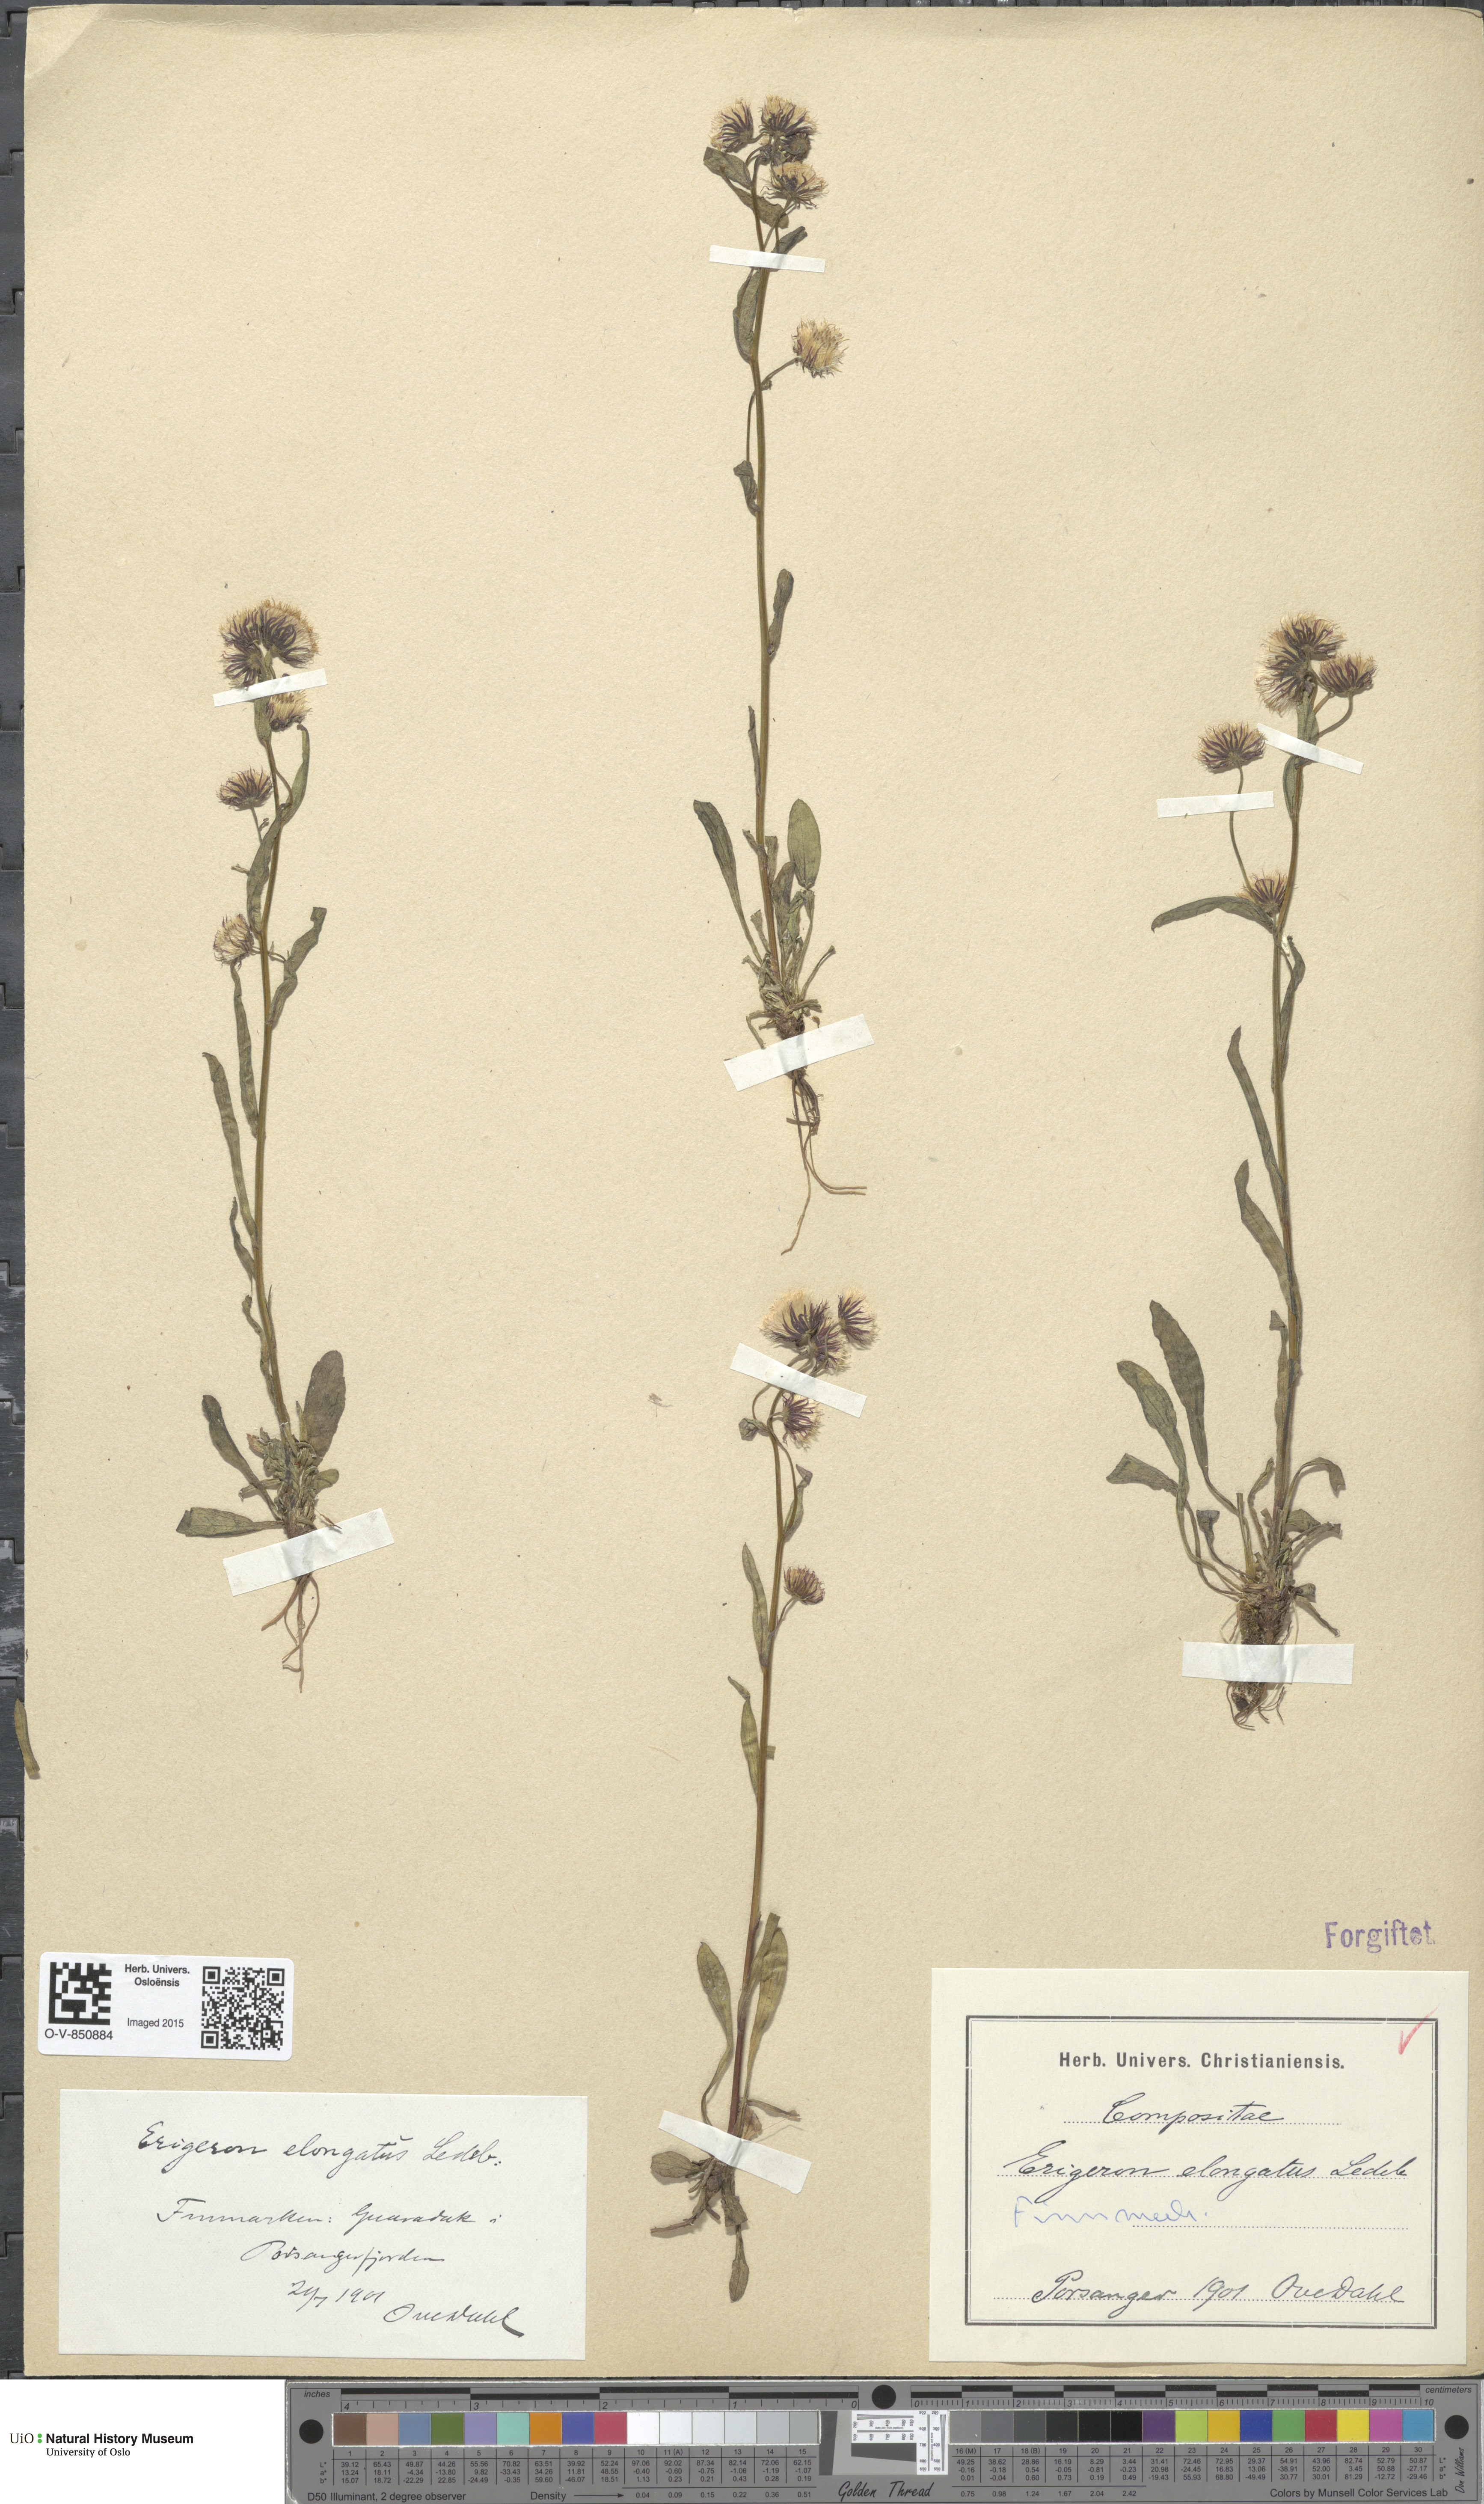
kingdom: Plantae
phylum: Tracheophyta
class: Magnoliopsida
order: Asterales
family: Asteraceae
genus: Erigeron
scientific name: Erigeron politus
